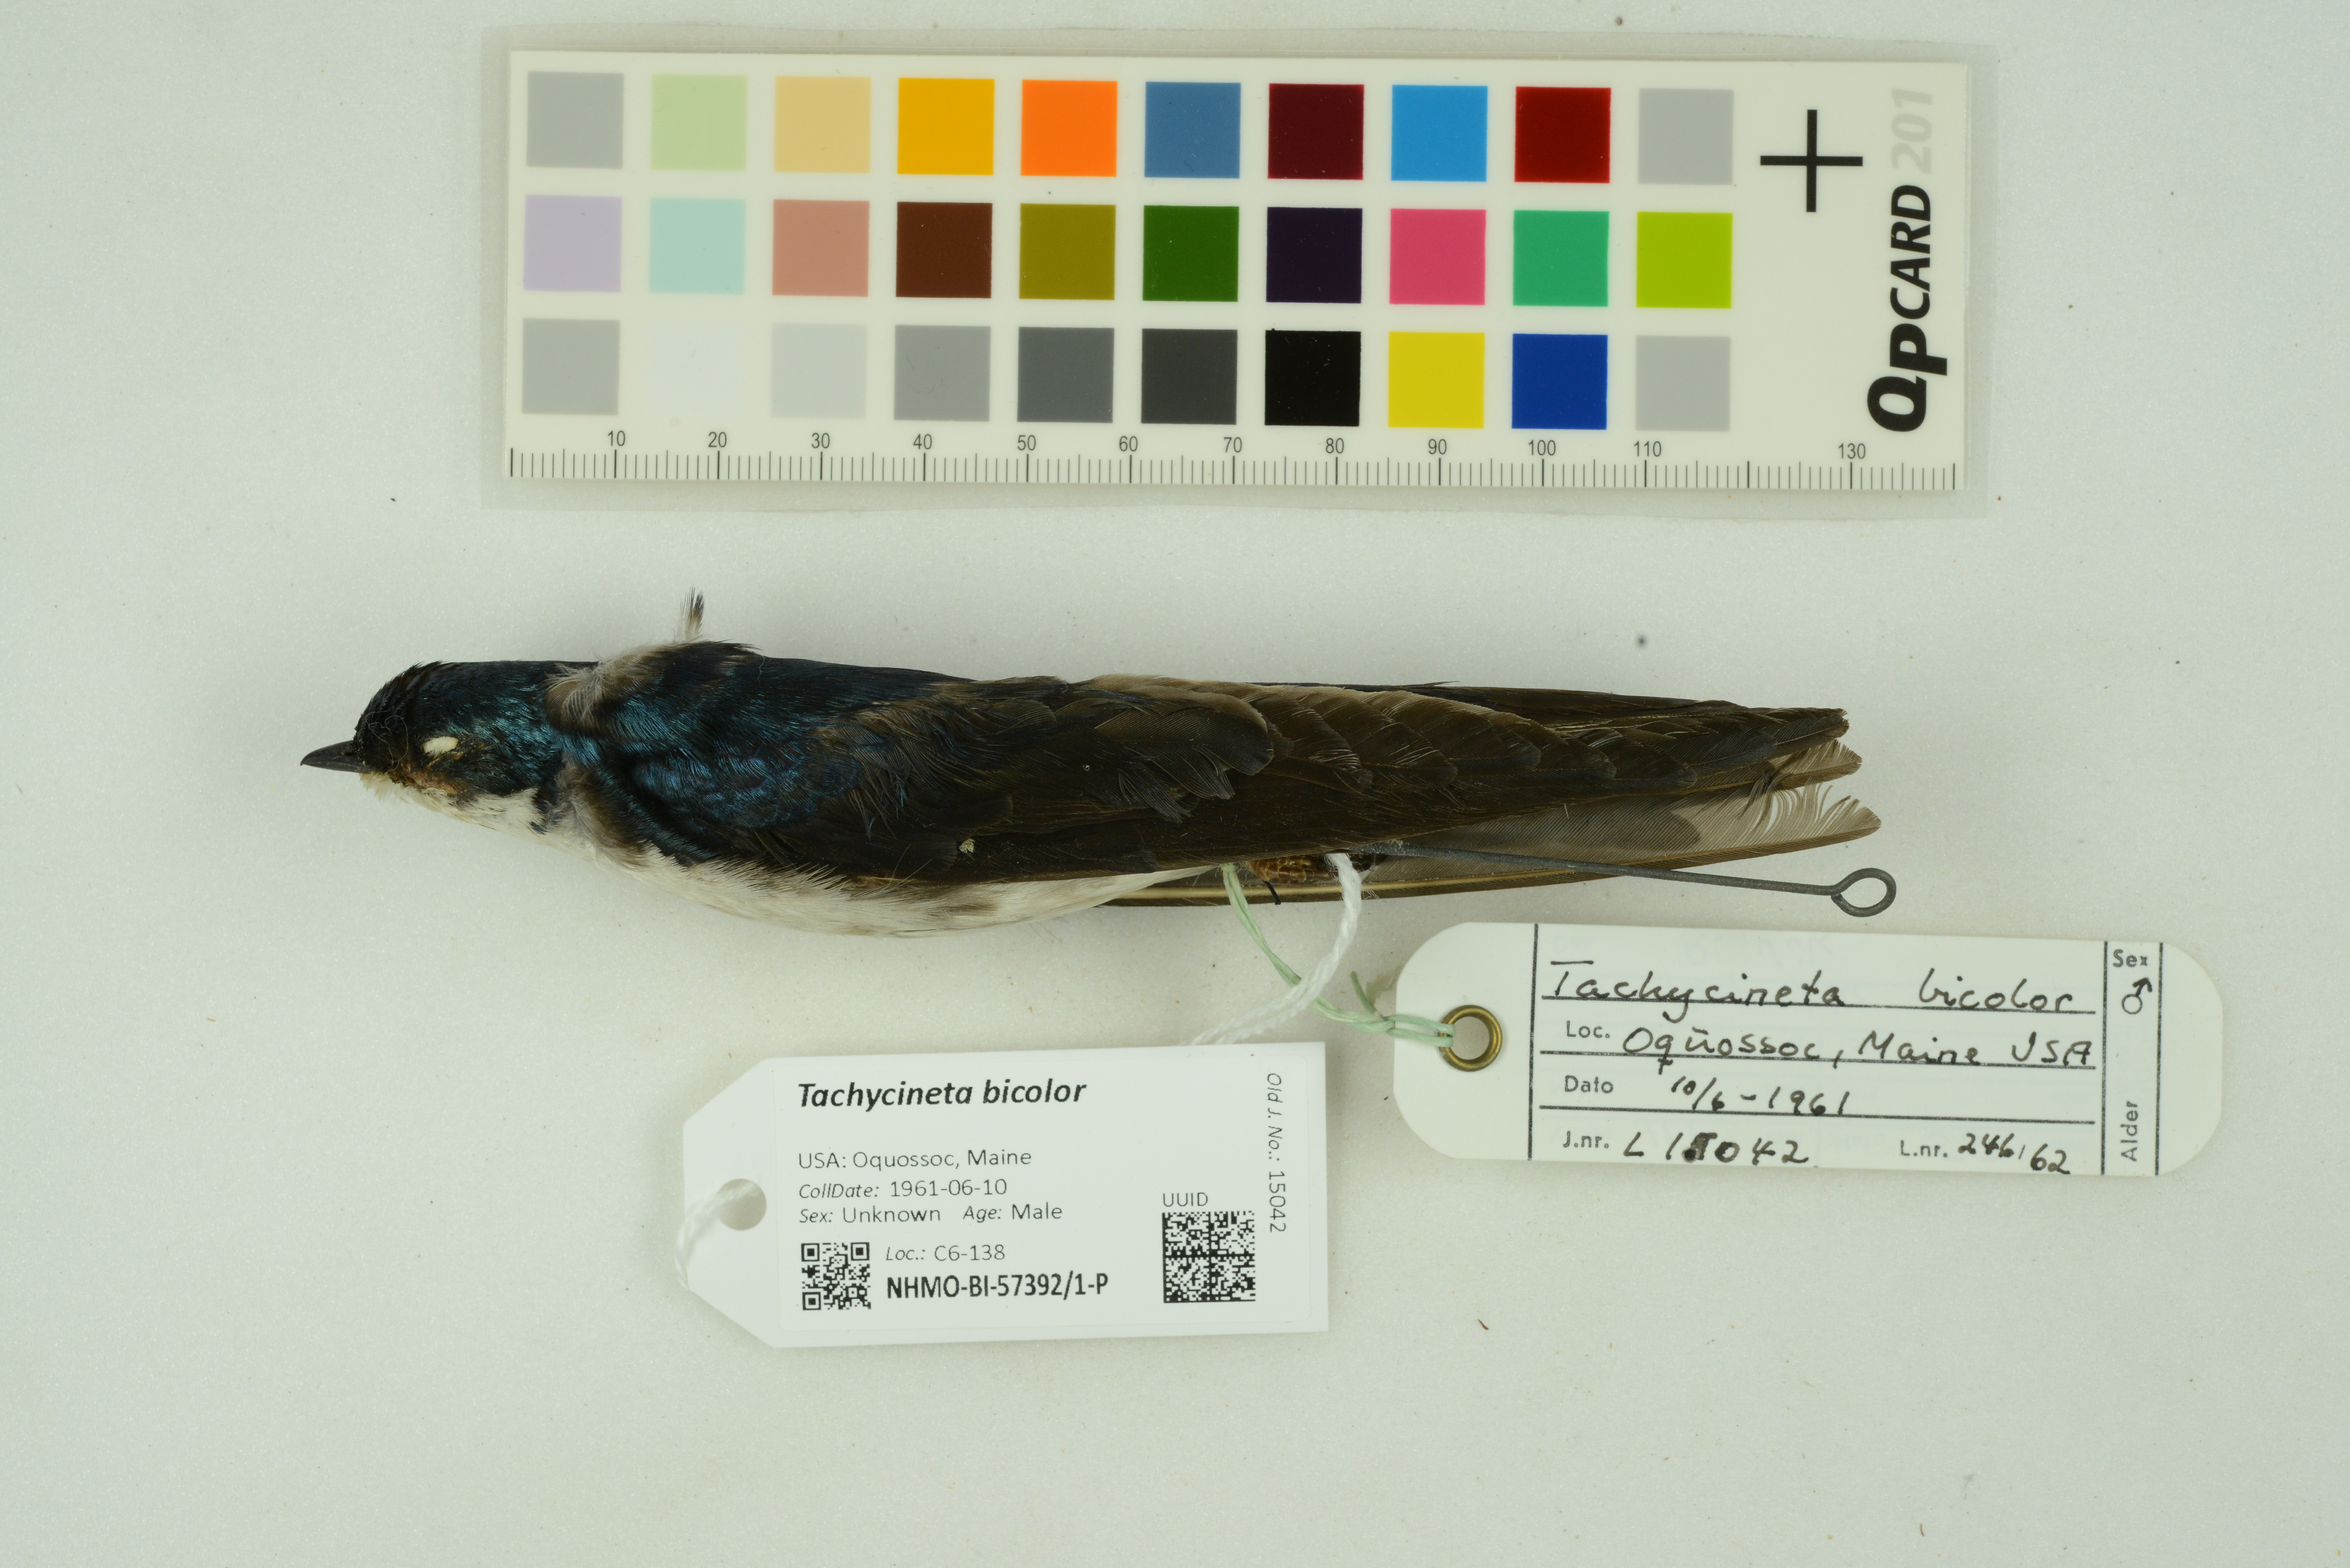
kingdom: Animalia
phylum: Chordata
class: Aves
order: Passeriformes
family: Hirundinidae
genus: Tachycineta
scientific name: Tachycineta bicolor
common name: Tree swallow
